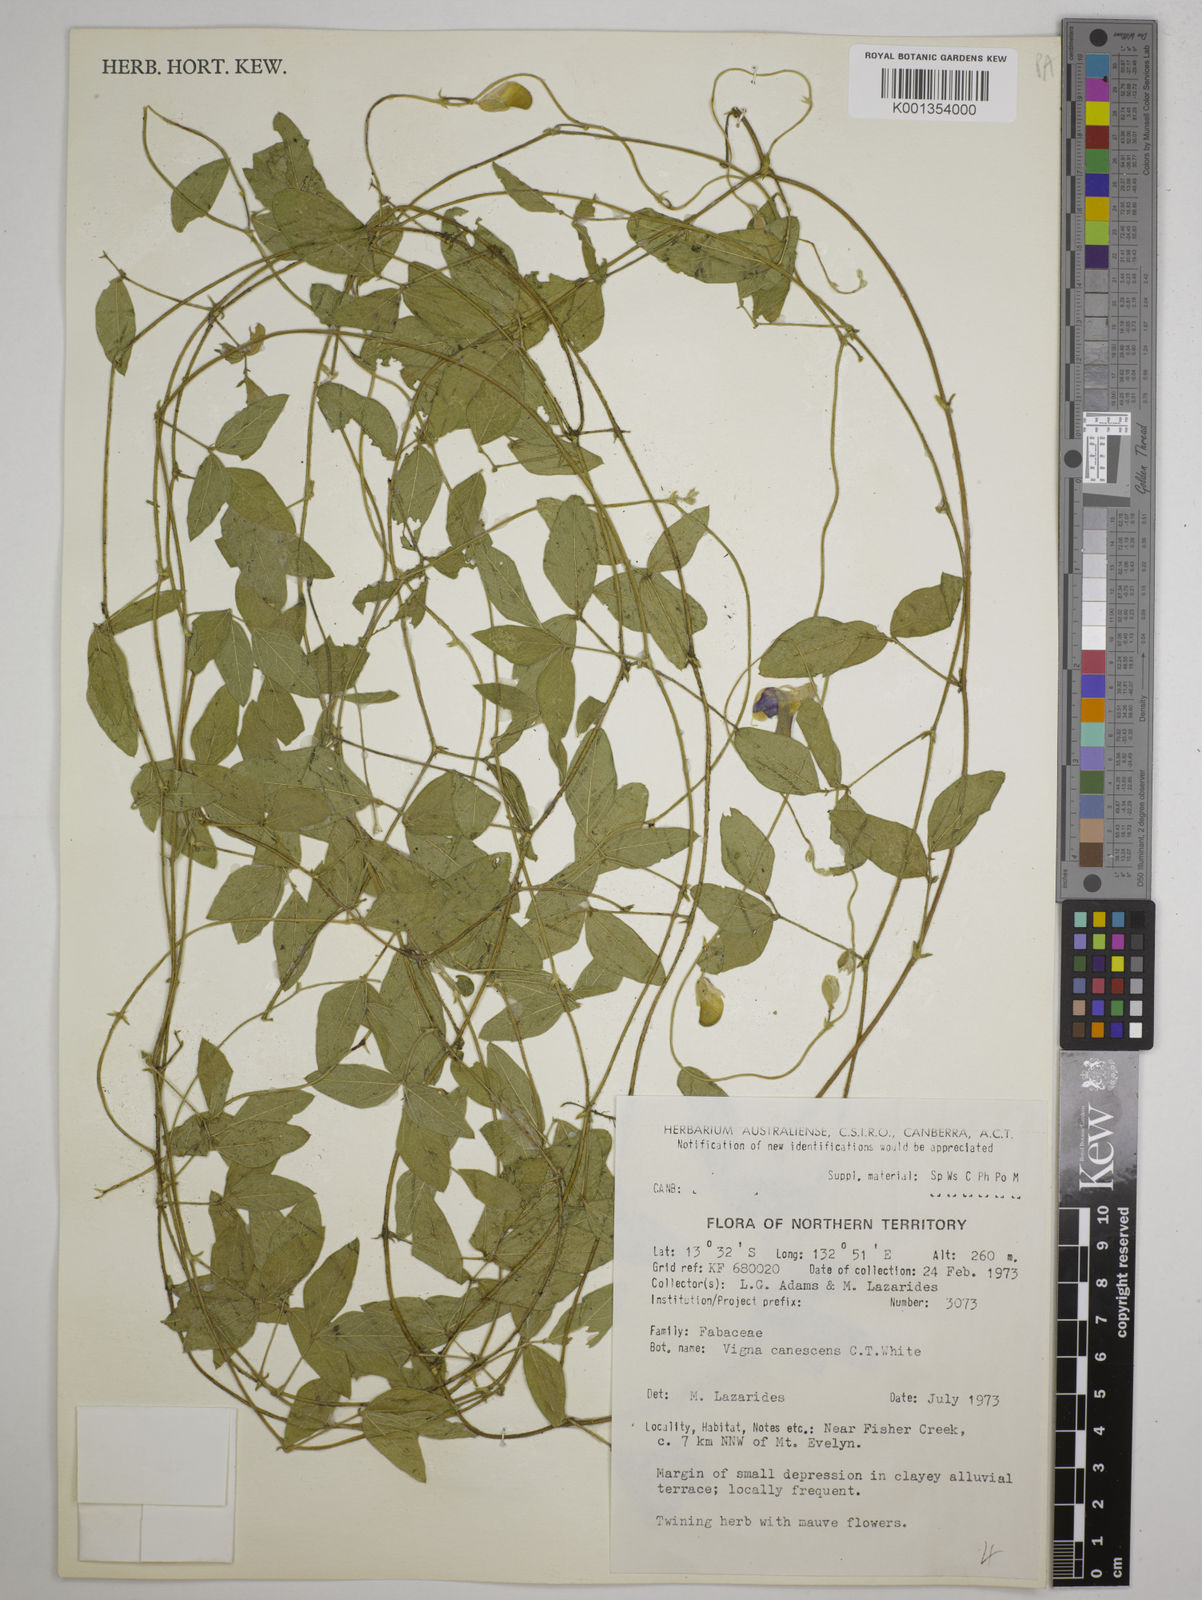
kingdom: Plantae
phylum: Tracheophyta
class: Magnoliopsida
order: Fabales
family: Fabaceae
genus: Austrodolichos
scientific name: Austrodolichos errabundus
